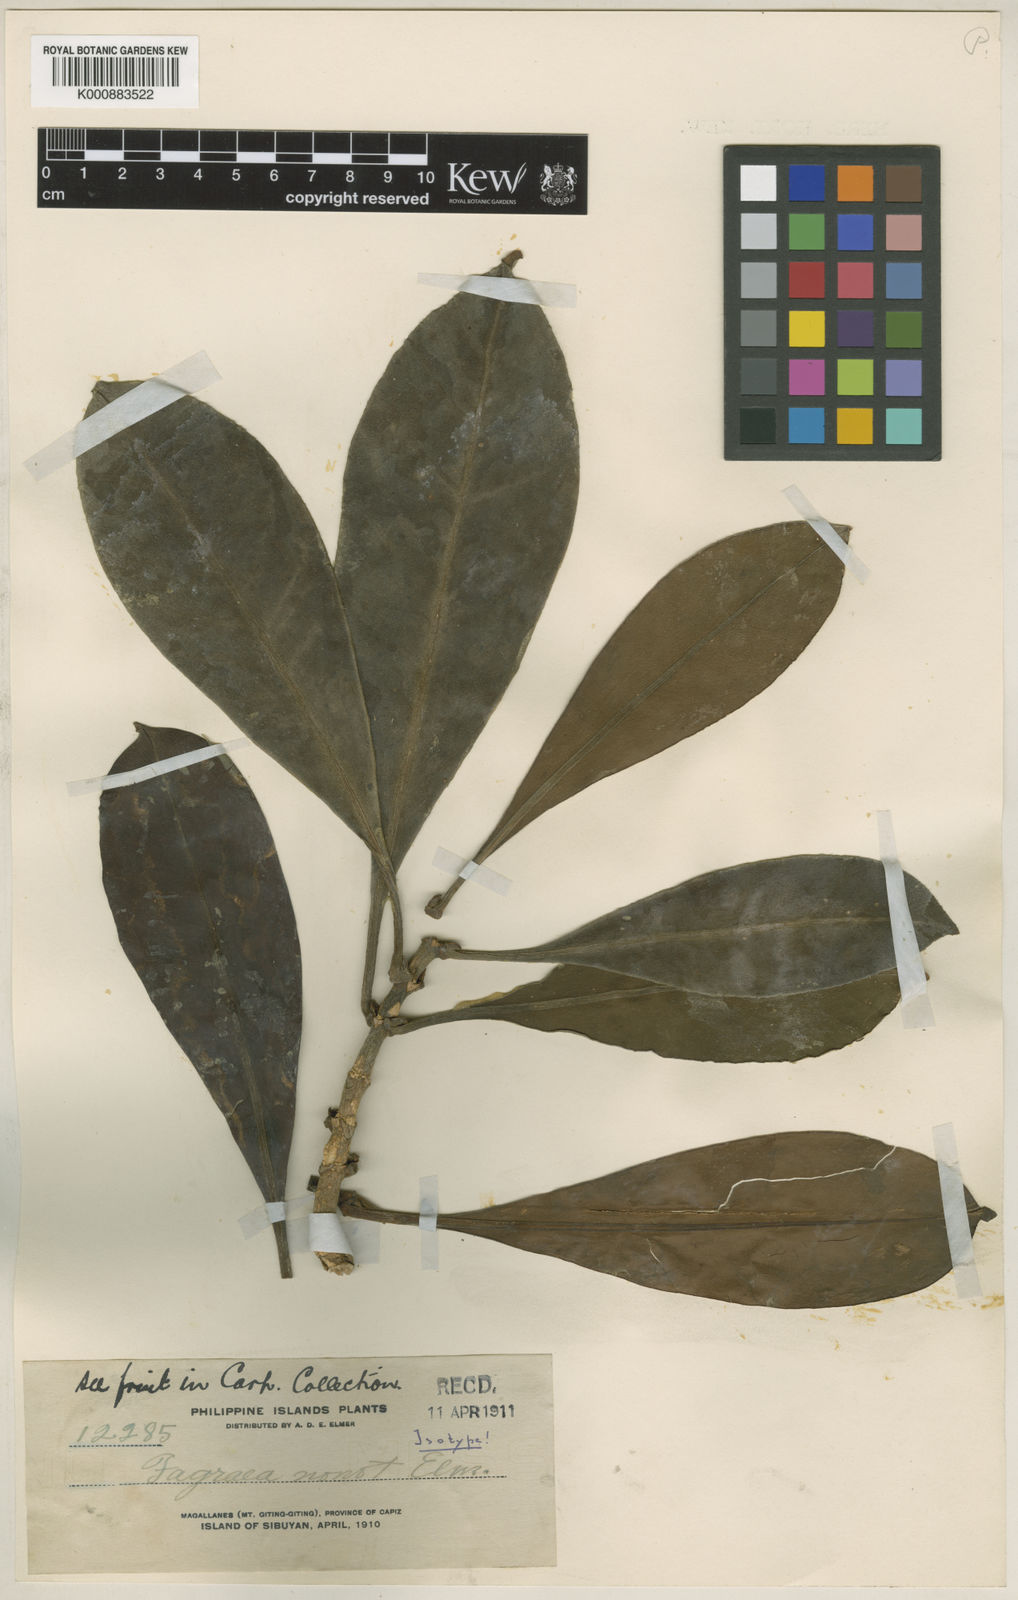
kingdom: Plantae
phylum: Tracheophyta
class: Magnoliopsida
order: Gentianales
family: Gentianaceae
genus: Fagraea
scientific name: Fagraea
